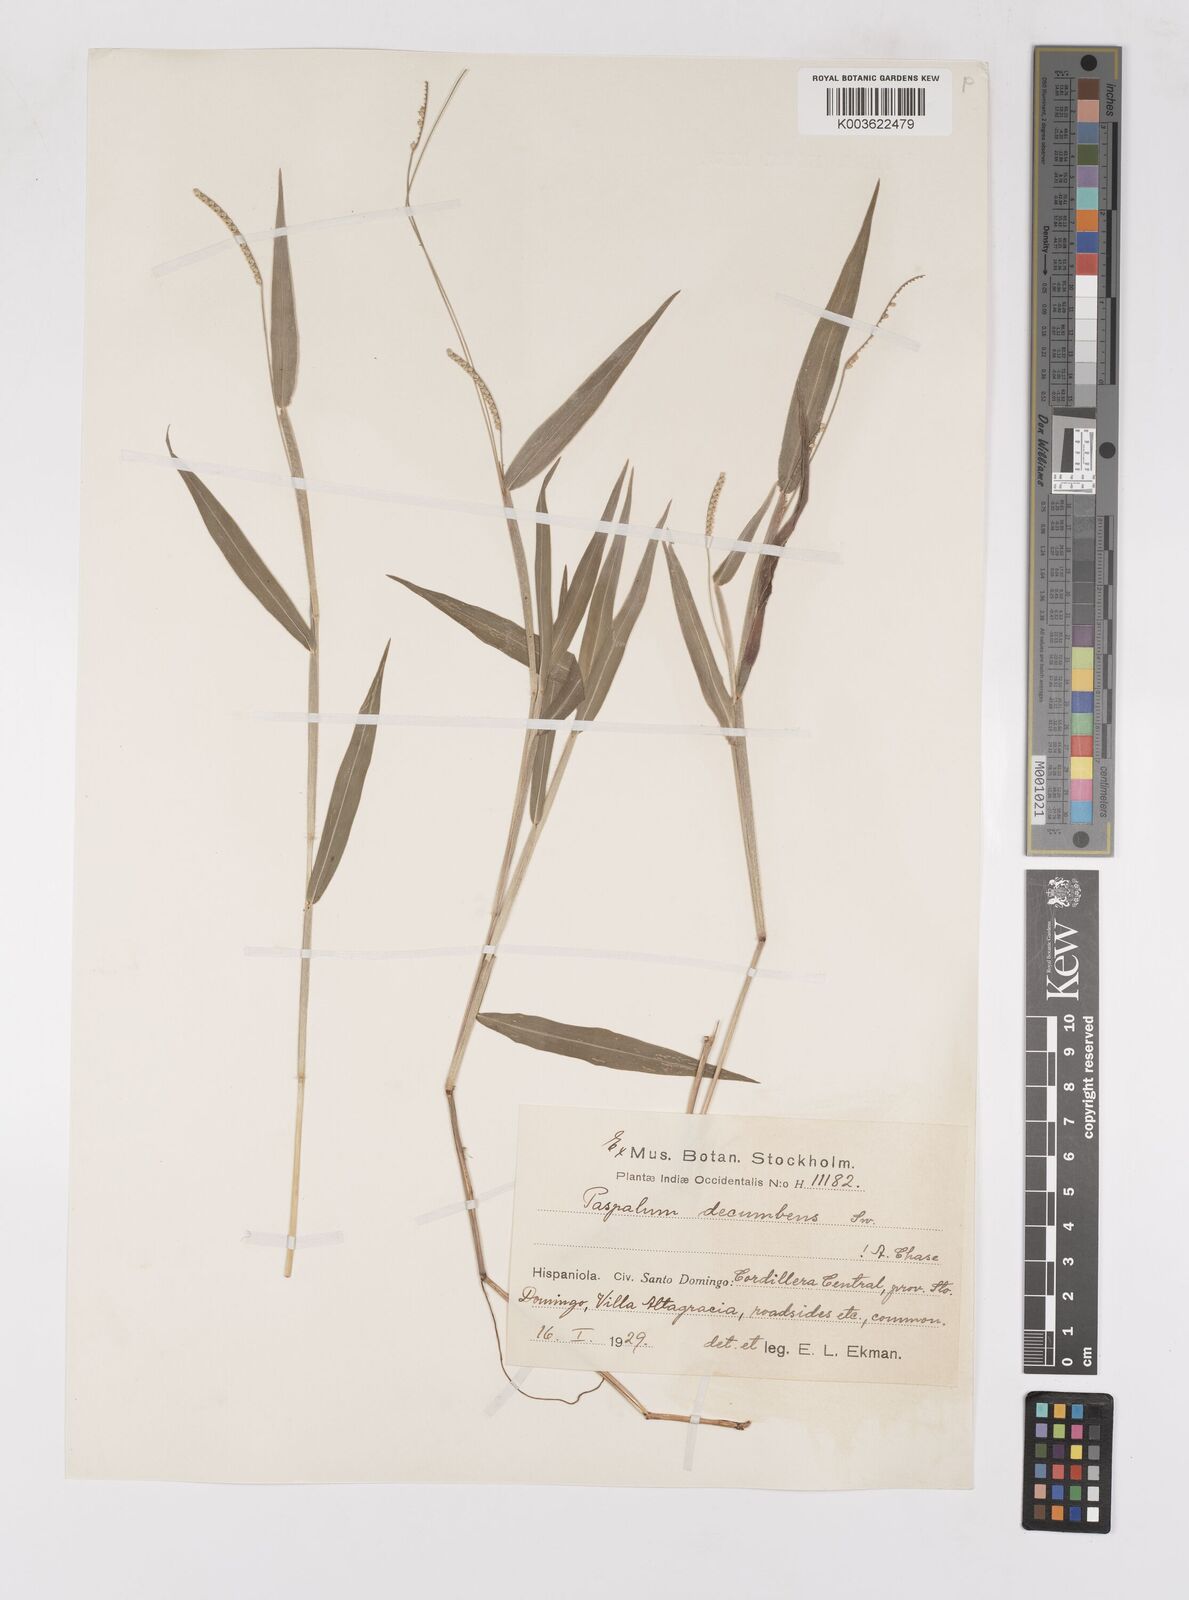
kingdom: Plantae
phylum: Tracheophyta
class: Liliopsida
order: Poales
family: Poaceae
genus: Paspalum
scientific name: Paspalum decumbens
